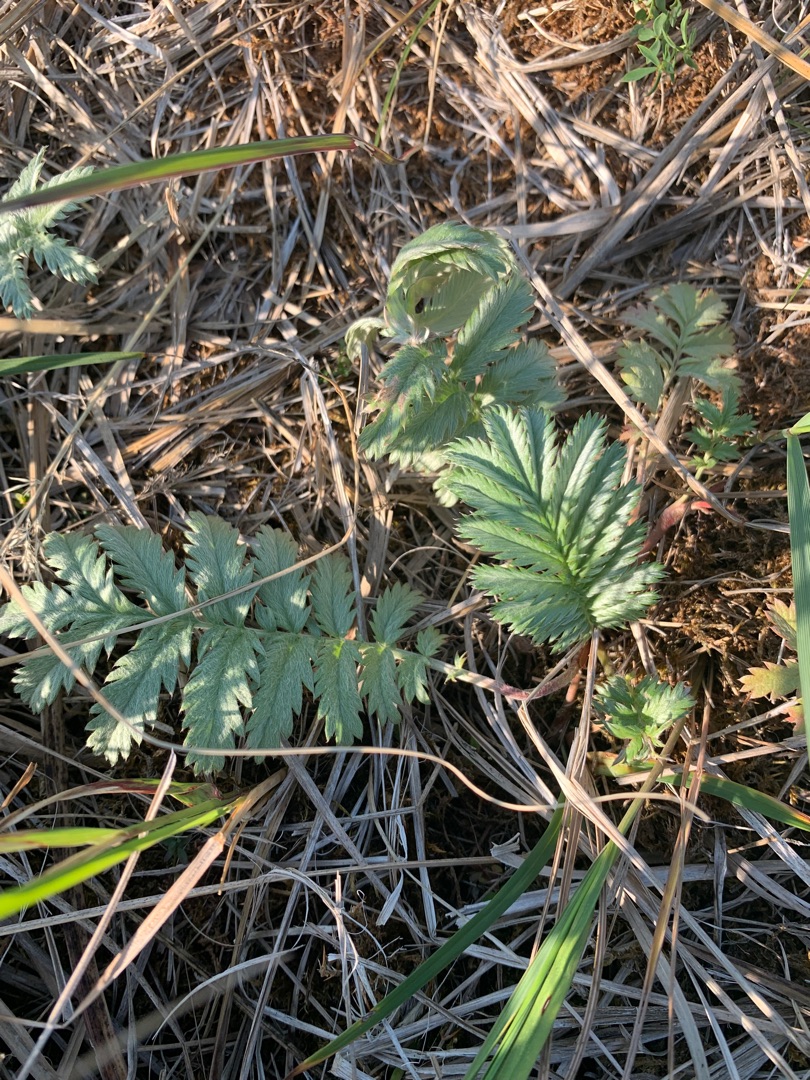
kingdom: Plantae
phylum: Tracheophyta
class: Magnoliopsida
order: Rosales
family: Rosaceae
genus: Argentina
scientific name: Argentina anserina
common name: Gåsepotentil
